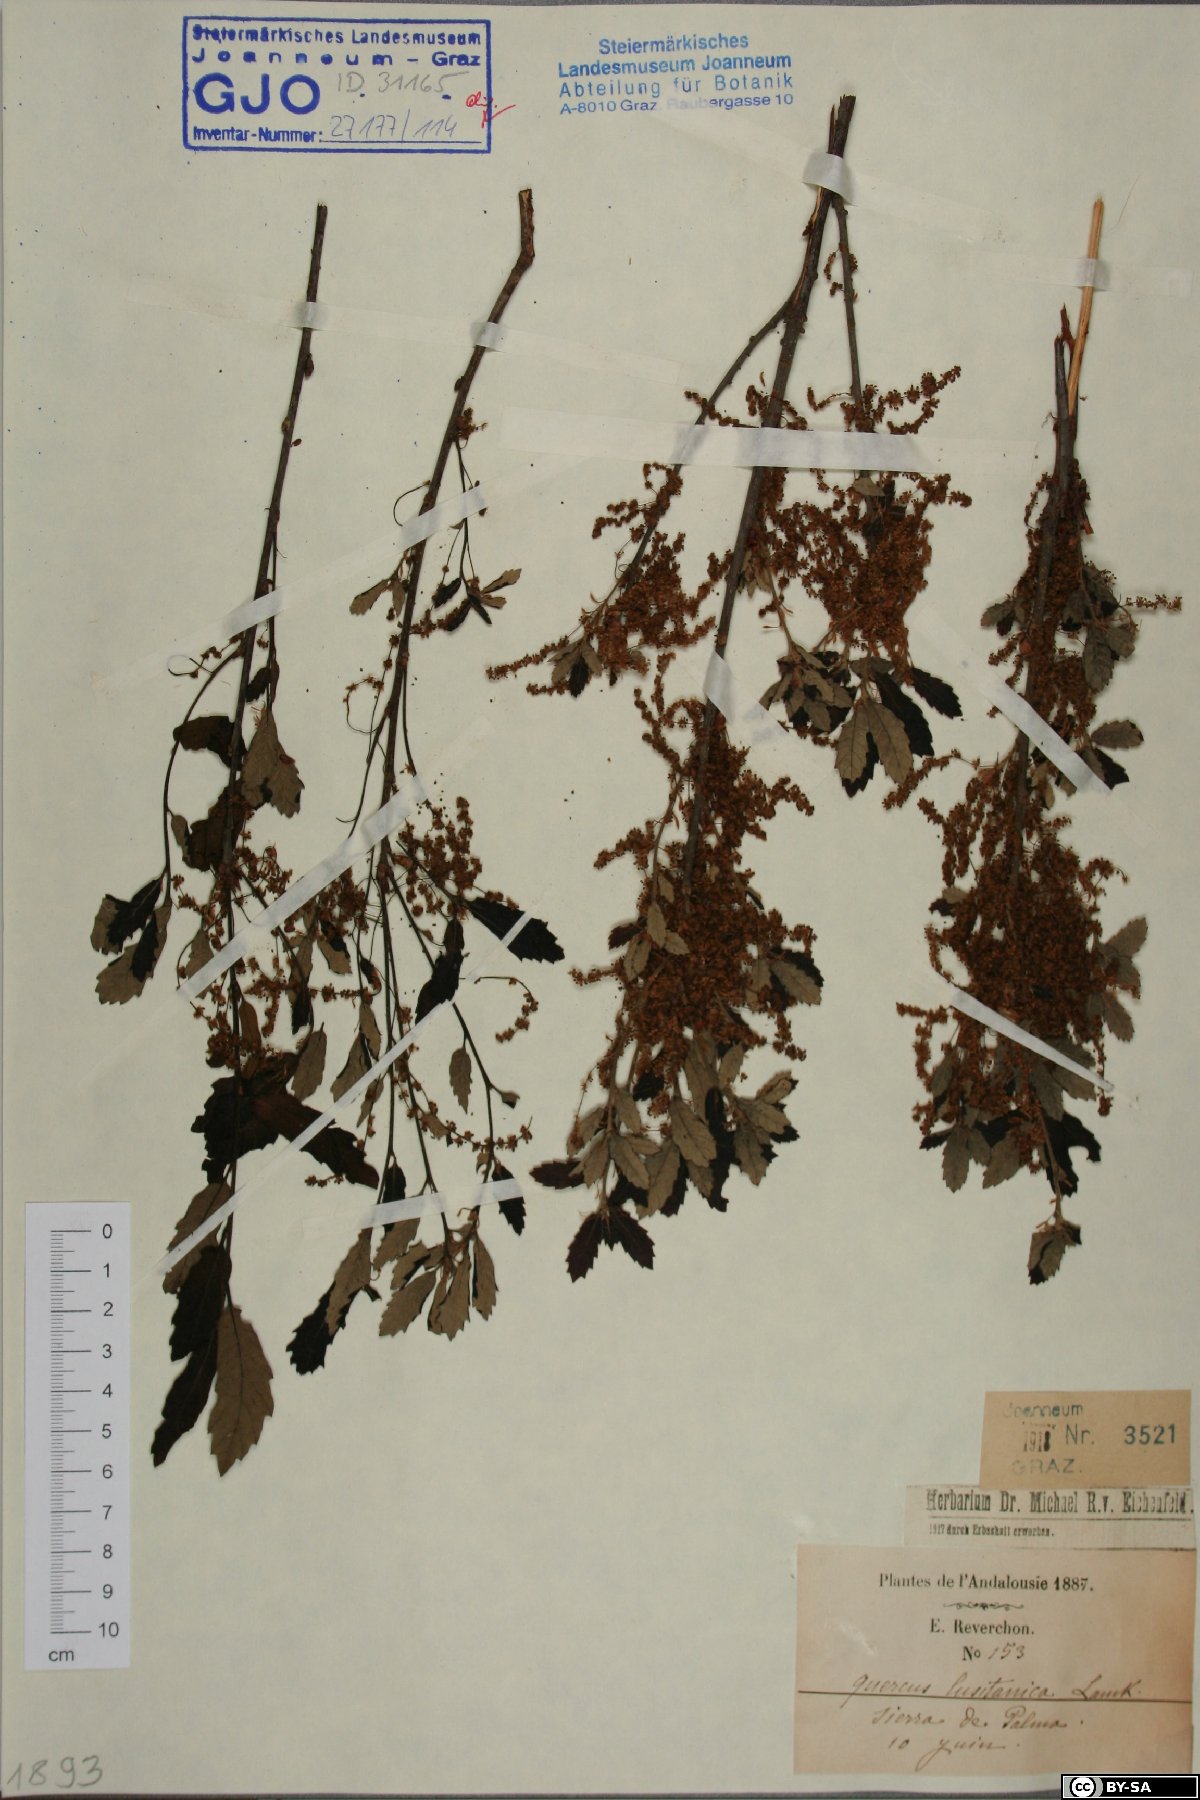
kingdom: Plantae
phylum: Tracheophyta
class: Magnoliopsida
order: Fagales
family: Fagaceae
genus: Quercus
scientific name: Quercus lusitanica
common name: Scrub gall oak
